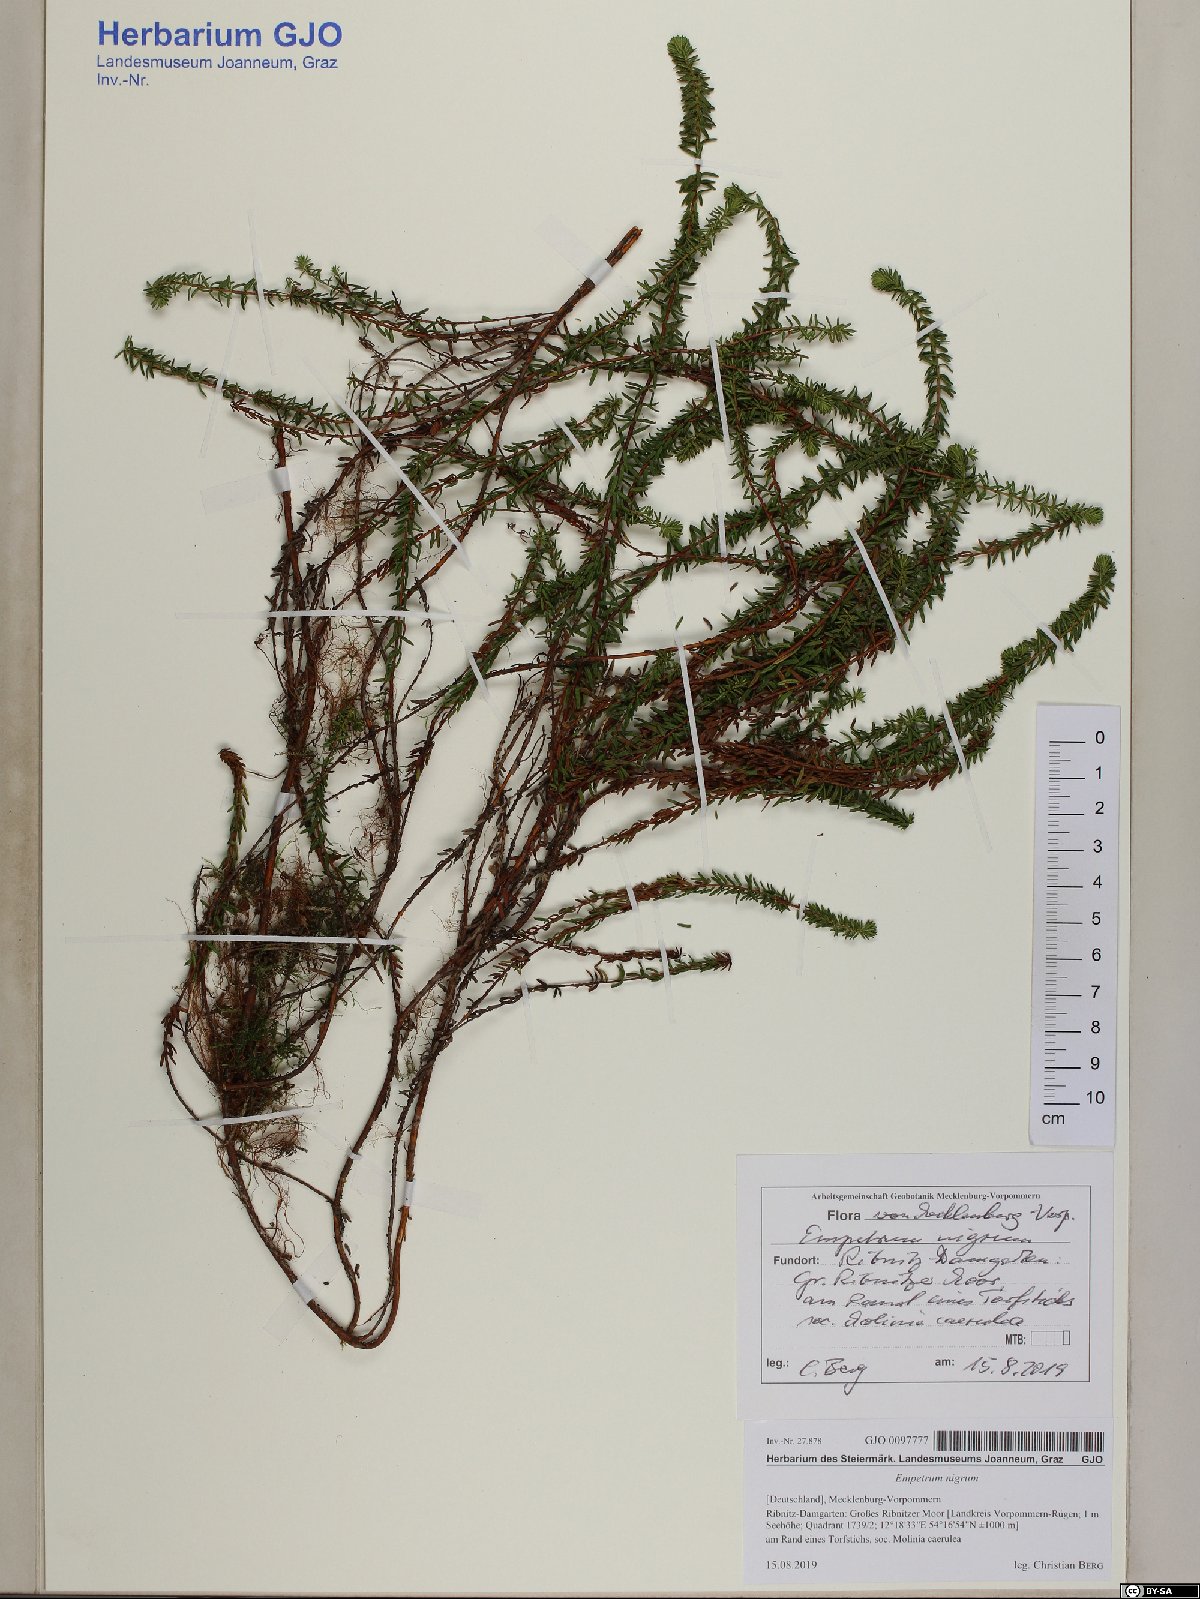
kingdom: Plantae
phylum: Tracheophyta
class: Magnoliopsida
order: Ericales
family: Ericaceae
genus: Empetrum
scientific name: Empetrum nigrum
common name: Black crowberry
